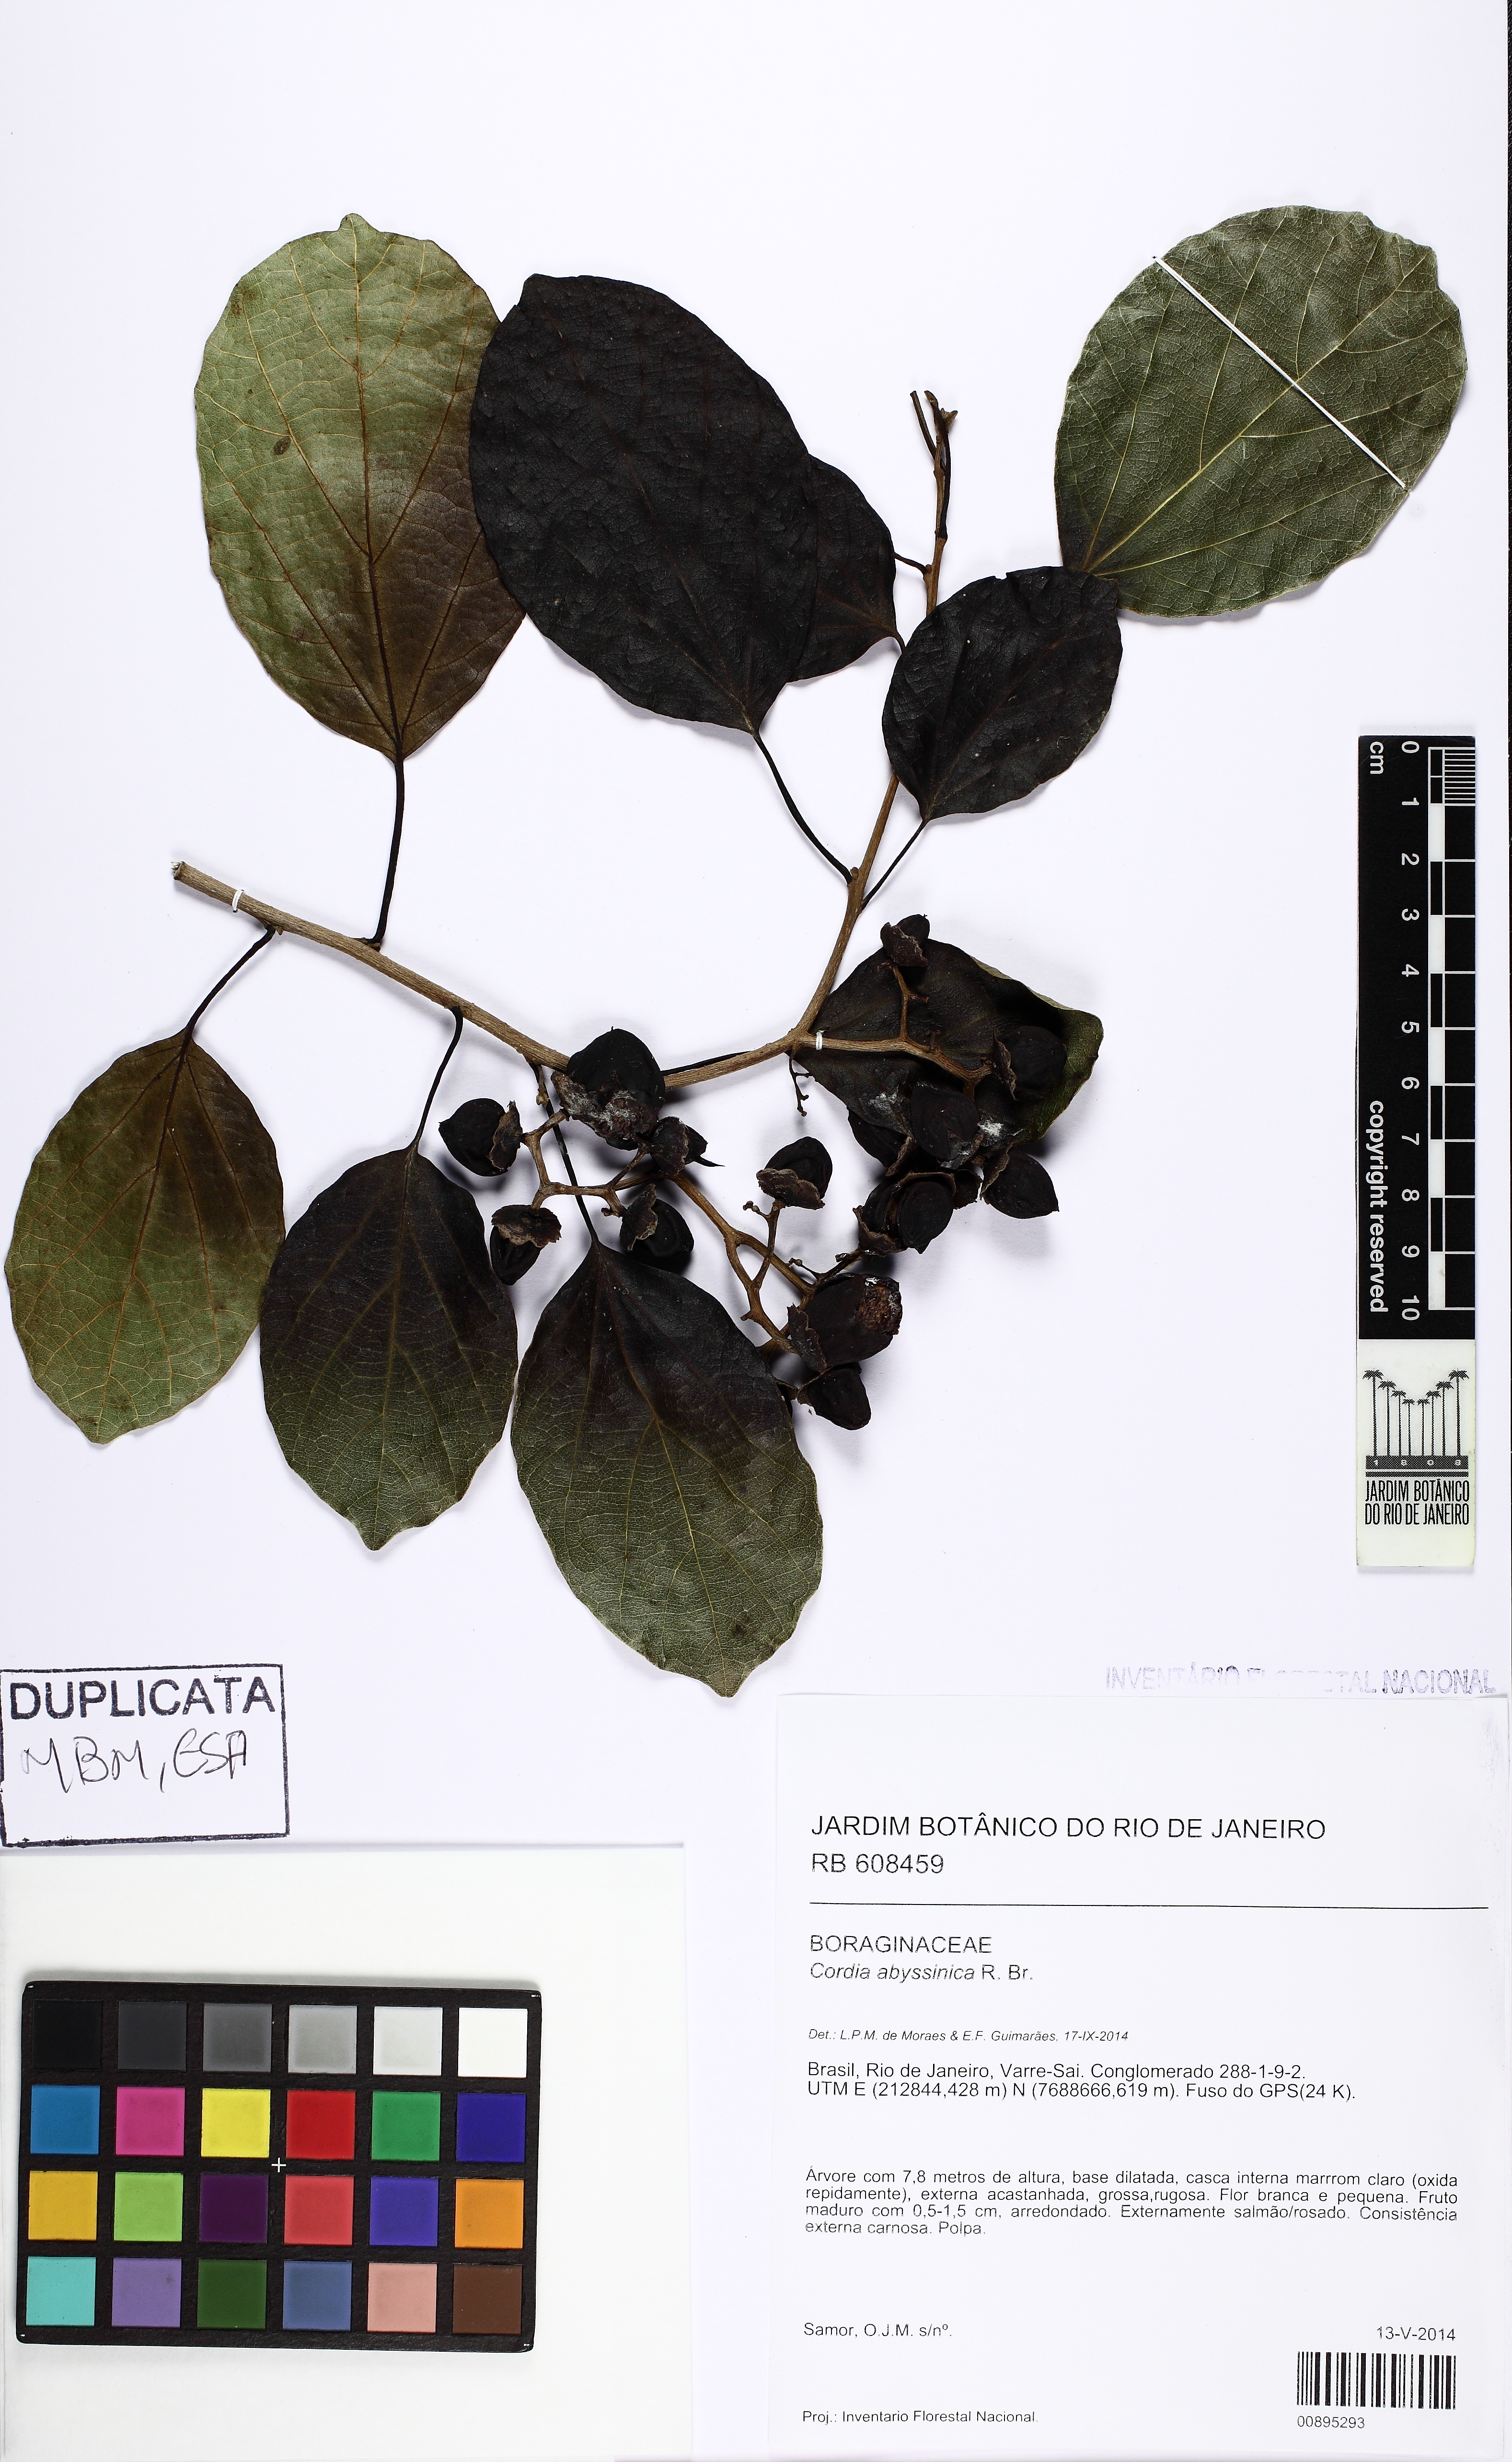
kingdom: Plantae
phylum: Tracheophyta
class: Magnoliopsida
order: Boraginales
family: Cordiaceae
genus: Cordia
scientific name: Cordia africana
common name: Large-leaved cordia
